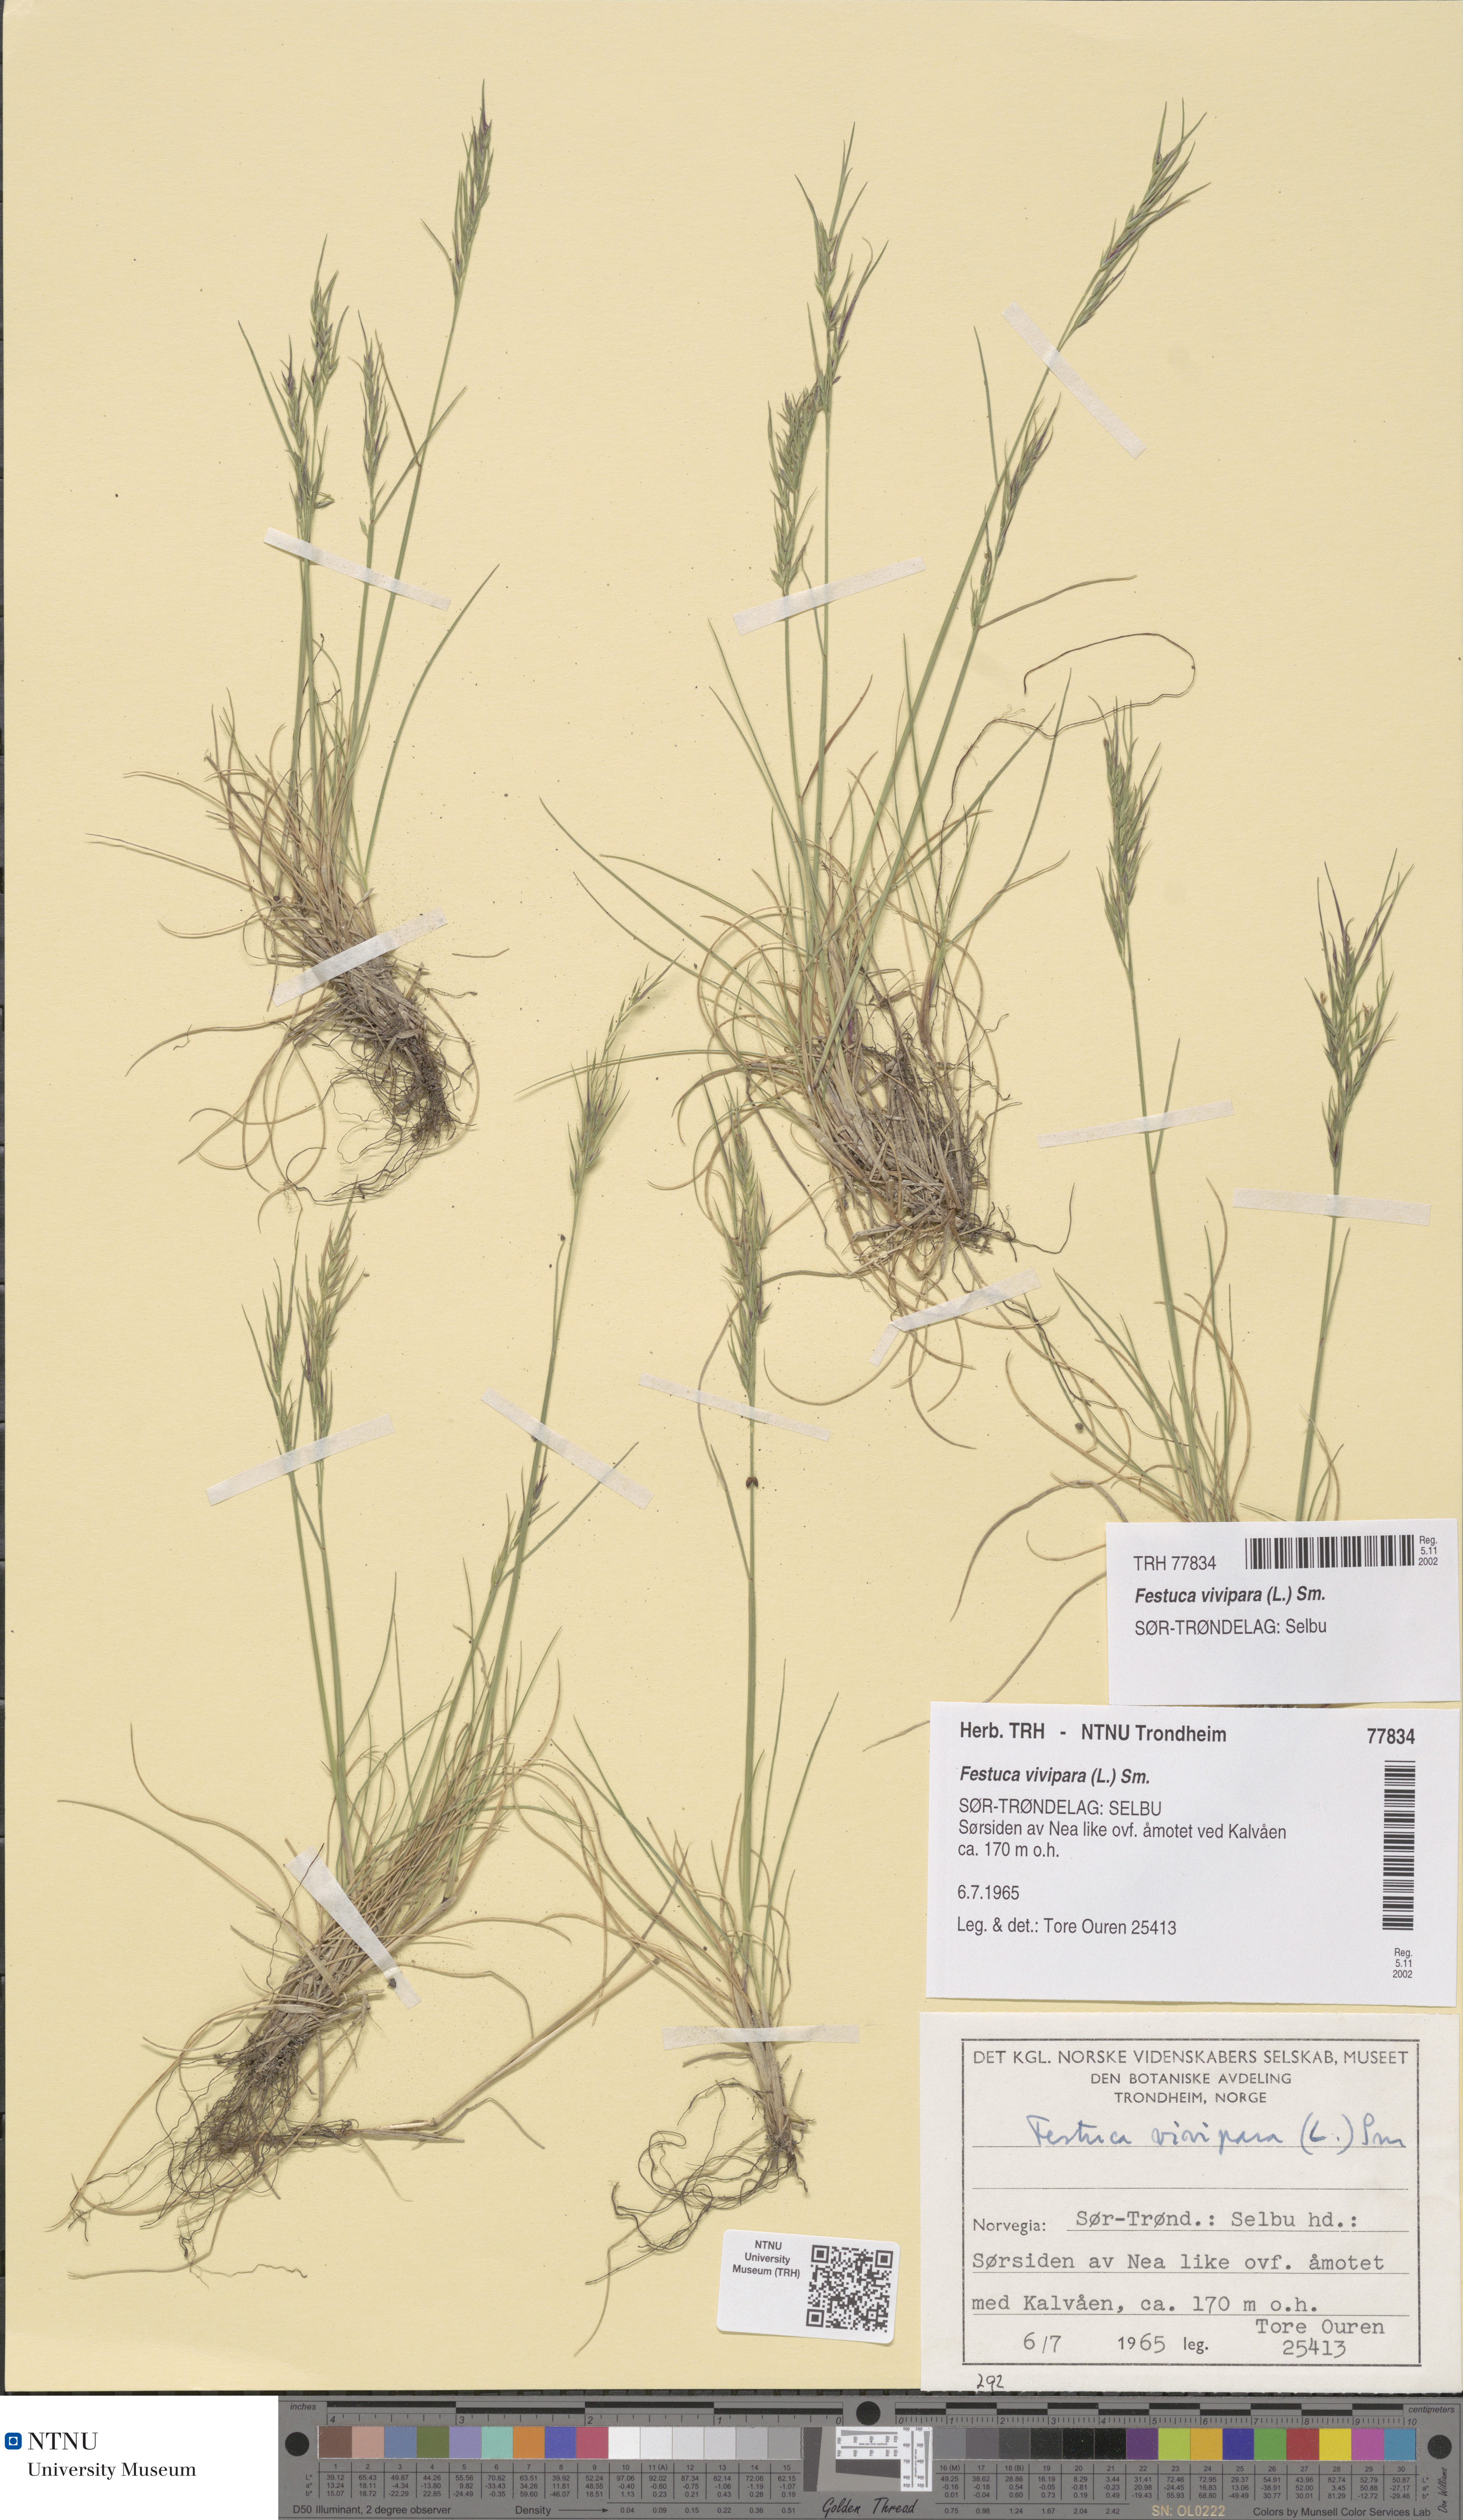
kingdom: Plantae
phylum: Tracheophyta
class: Liliopsida
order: Poales
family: Poaceae
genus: Festuca
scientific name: Festuca vivipara
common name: Viviparous sheep's-fescue
